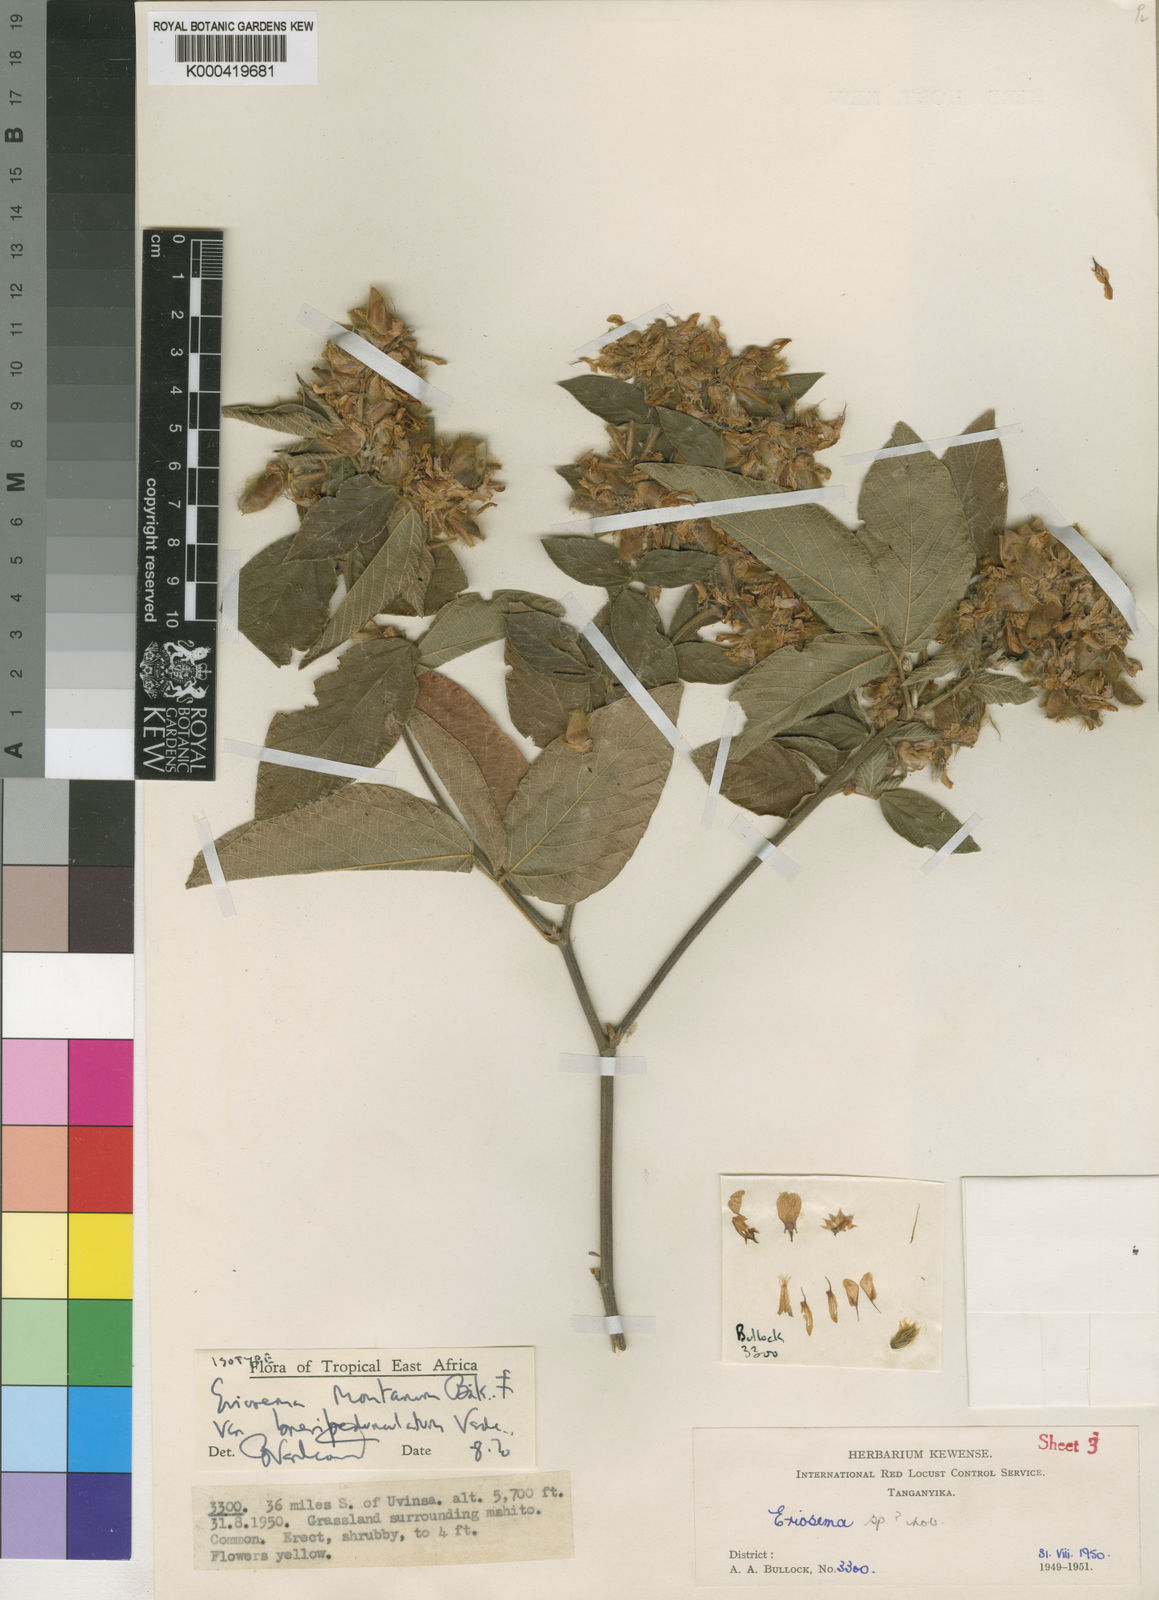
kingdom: Plantae
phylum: Tracheophyta
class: Magnoliopsida
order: Fabales
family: Fabaceae
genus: Eriosema
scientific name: Eriosema montanum
